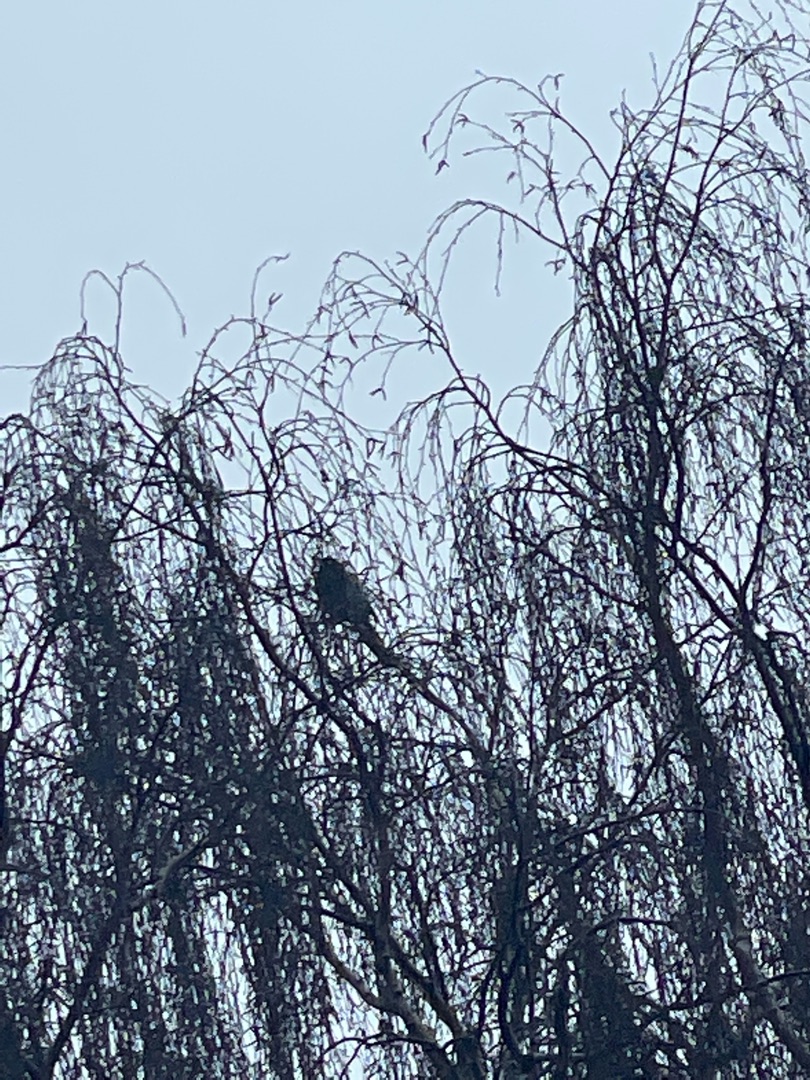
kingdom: Animalia
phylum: Chordata
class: Aves
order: Passeriformes
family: Corvidae
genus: Pica
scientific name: Pica pica
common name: Husskade
